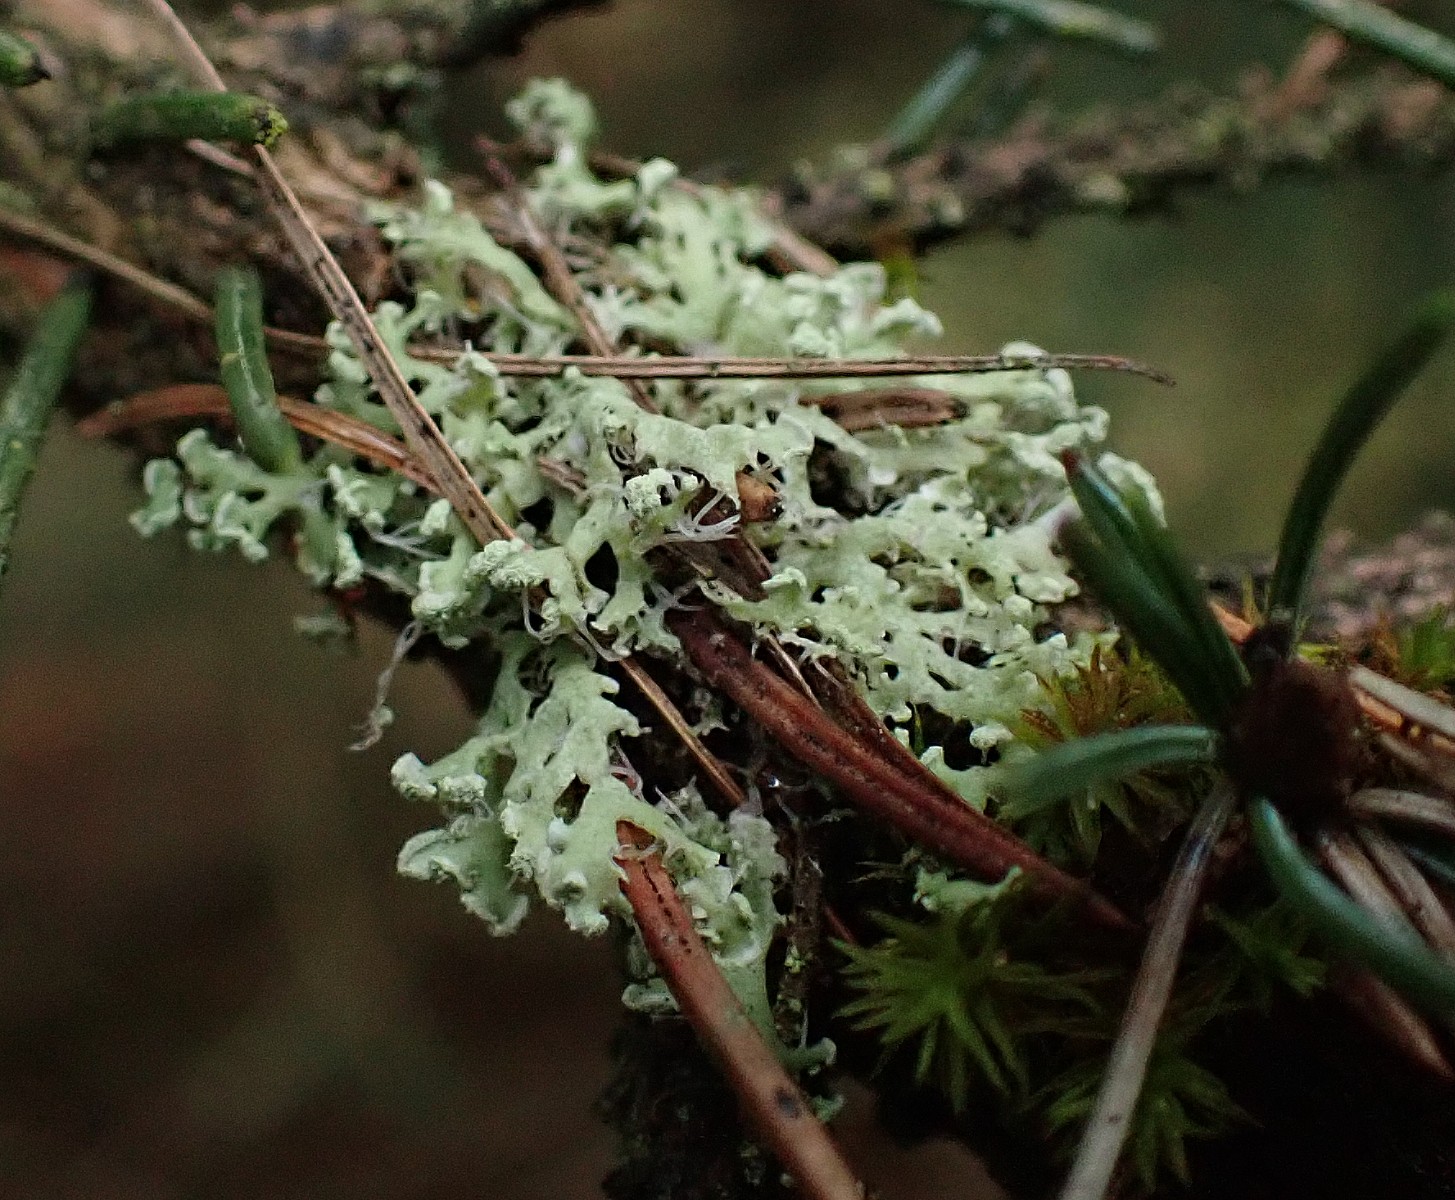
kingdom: Fungi
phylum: Ascomycota
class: Lecanoromycetes
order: Caliciales
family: Physciaceae
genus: Physcia
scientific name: Physcia tenella
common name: spæd rosetlav
